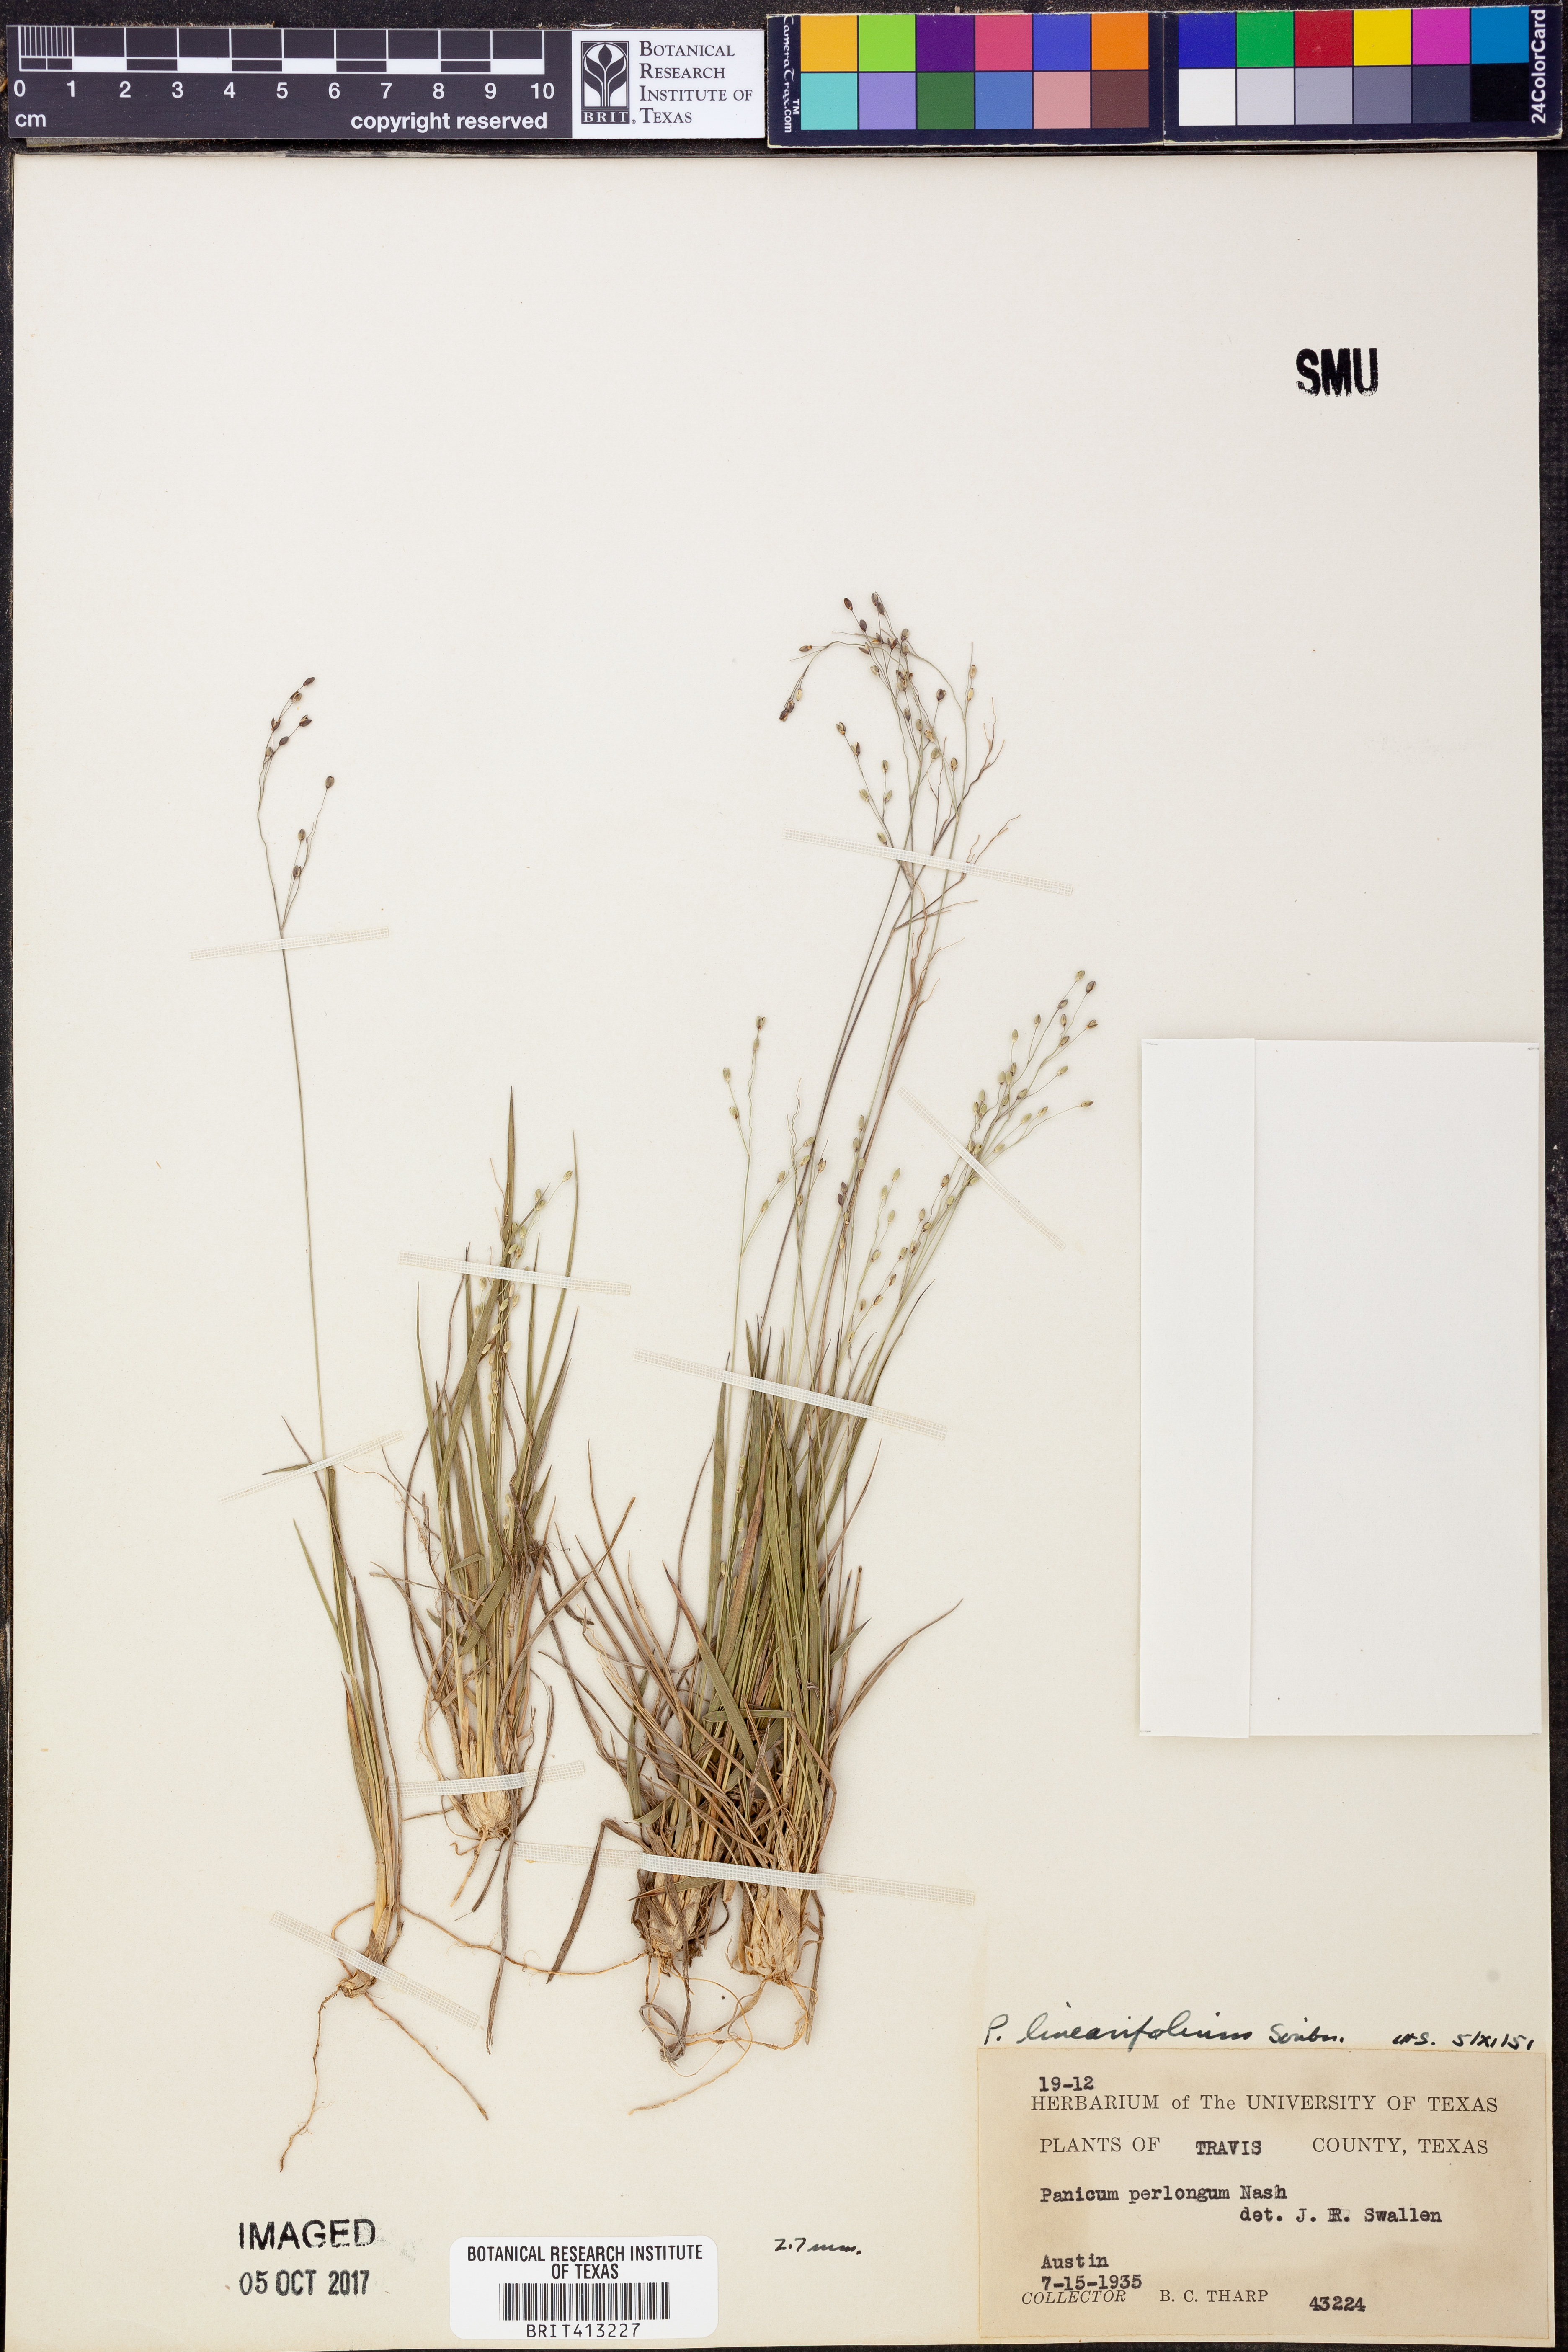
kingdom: Plantae
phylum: Tracheophyta
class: Liliopsida
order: Poales
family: Poaceae
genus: Dichanthelium
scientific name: Dichanthelium linearifolium
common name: Linear-leaved panicgrass
